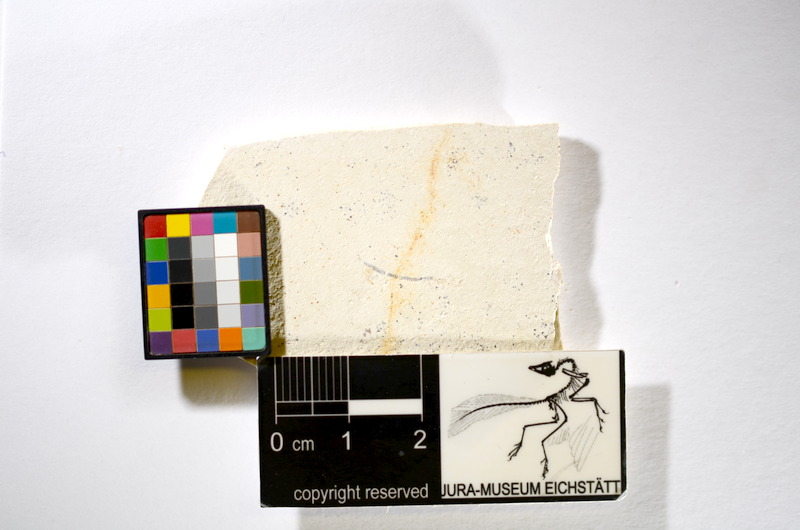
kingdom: Animalia
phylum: Chordata
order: Salmoniformes
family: Orthogonikleithridae
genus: Orthogonikleithrus
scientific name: Orthogonikleithrus hoelli
